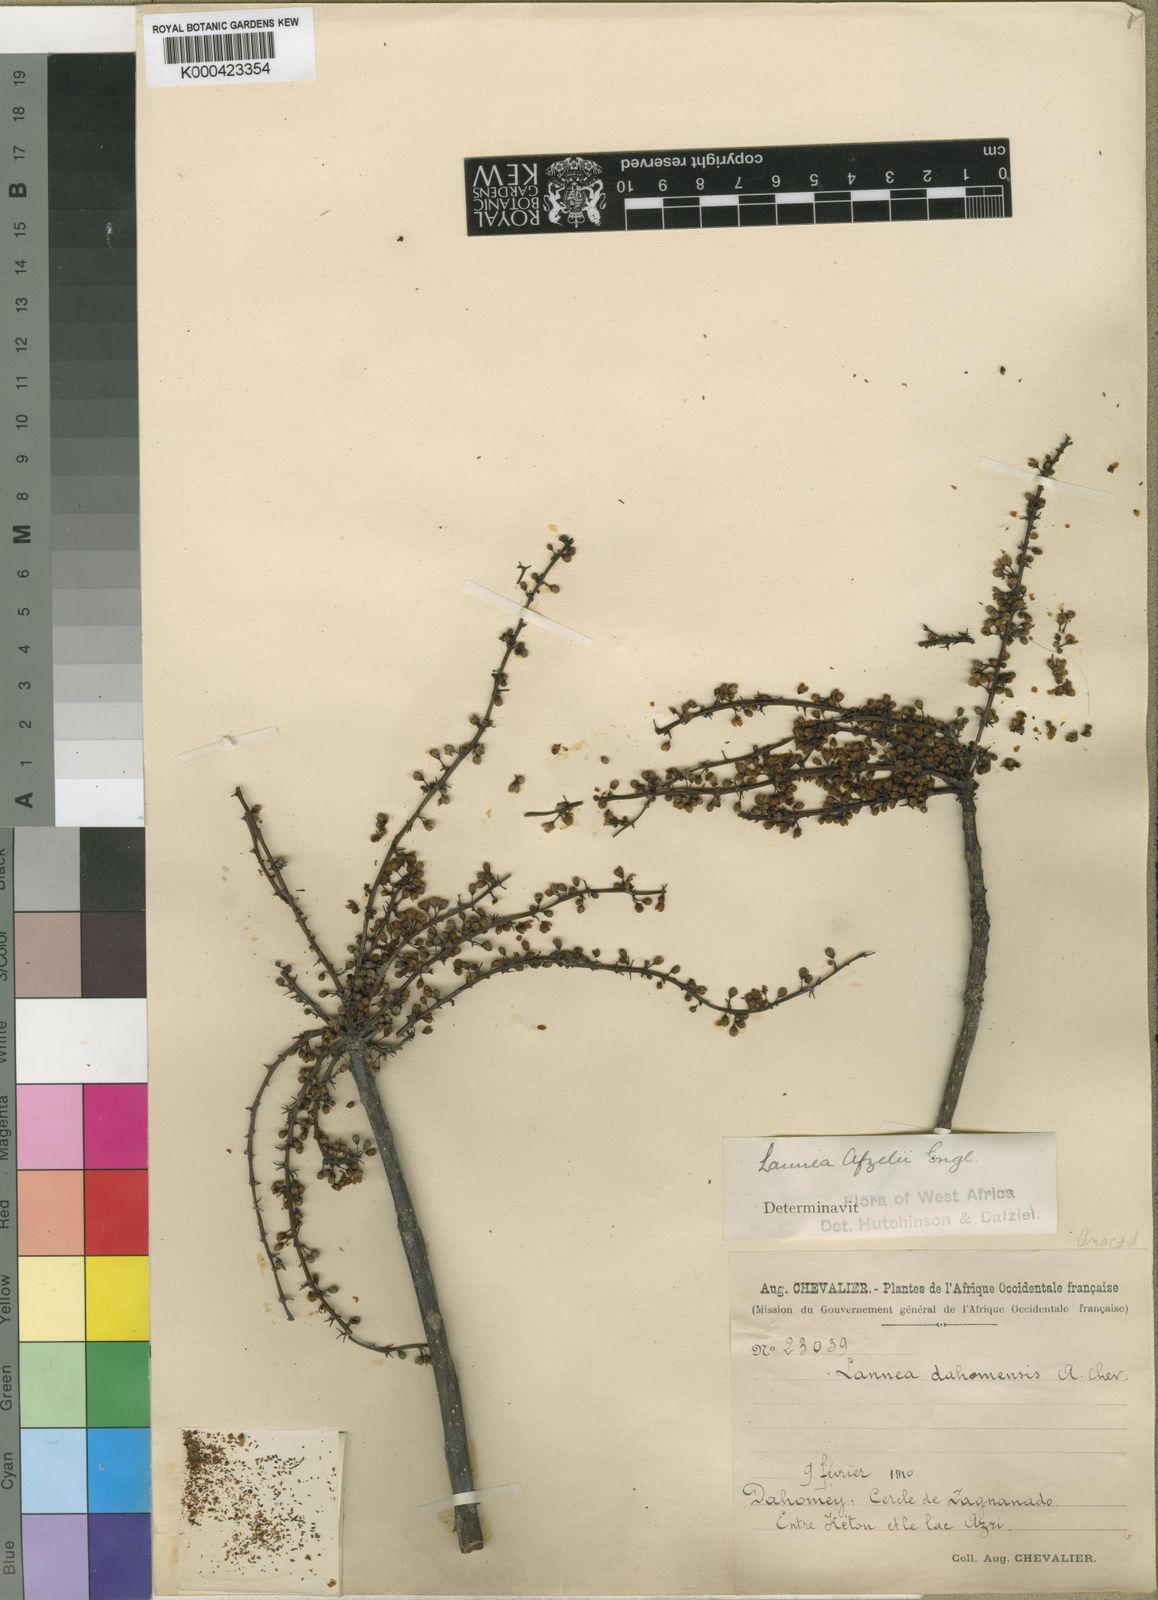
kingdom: Plantae
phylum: Tracheophyta
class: Magnoliopsida
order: Sapindales
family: Anacardiaceae
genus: Lannea
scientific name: Lannea nigritana
